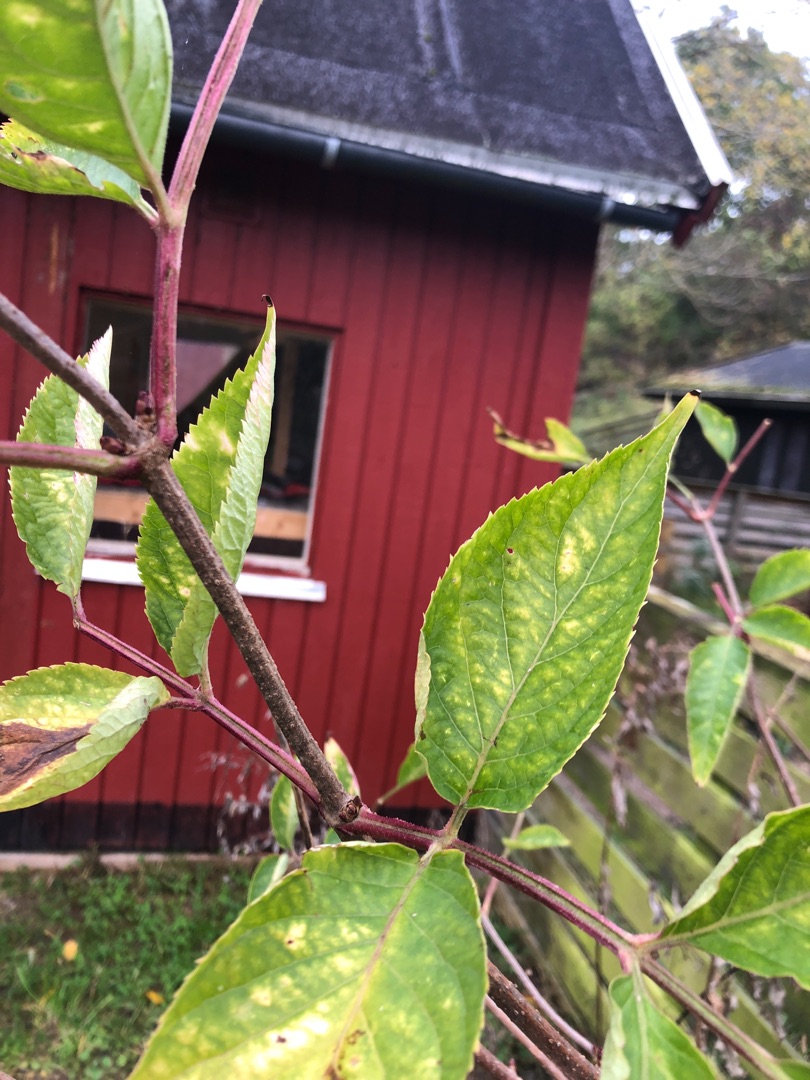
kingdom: Plantae
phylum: Tracheophyta
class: Magnoliopsida
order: Dipsacales
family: Viburnaceae
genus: Sambucus
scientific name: Sambucus
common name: Hyldeslægten
